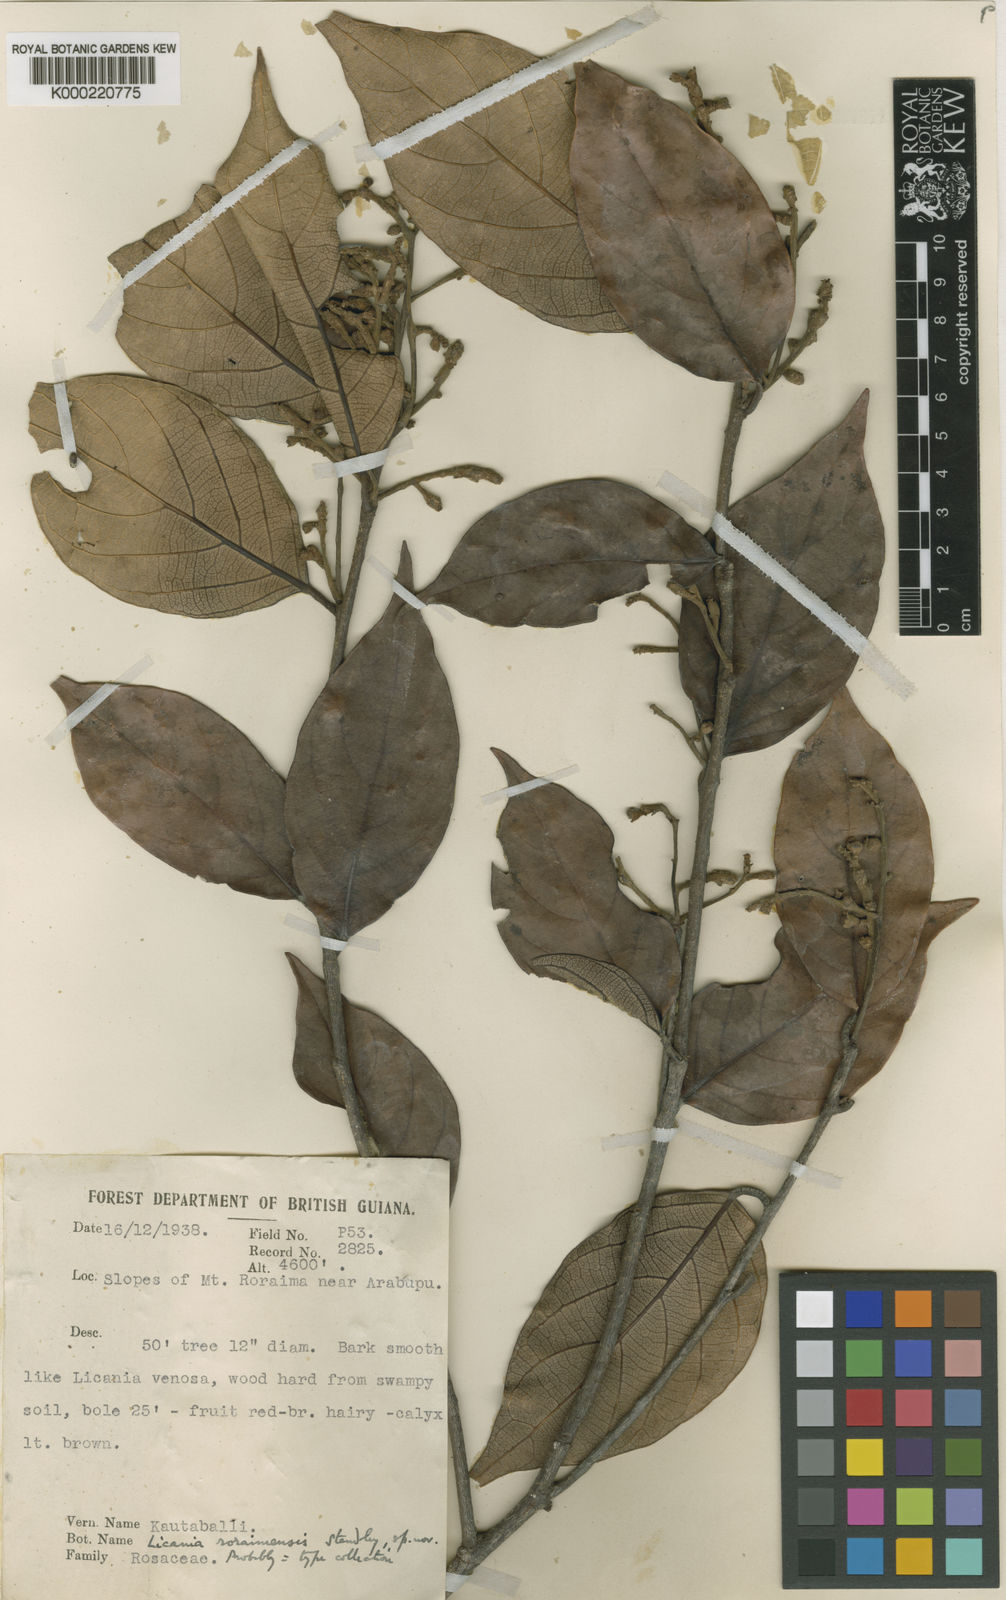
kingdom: Plantae
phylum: Tracheophyta
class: Magnoliopsida
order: Malpighiales
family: Chrysobalanaceae
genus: Licania
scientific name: Licania roraimensis
